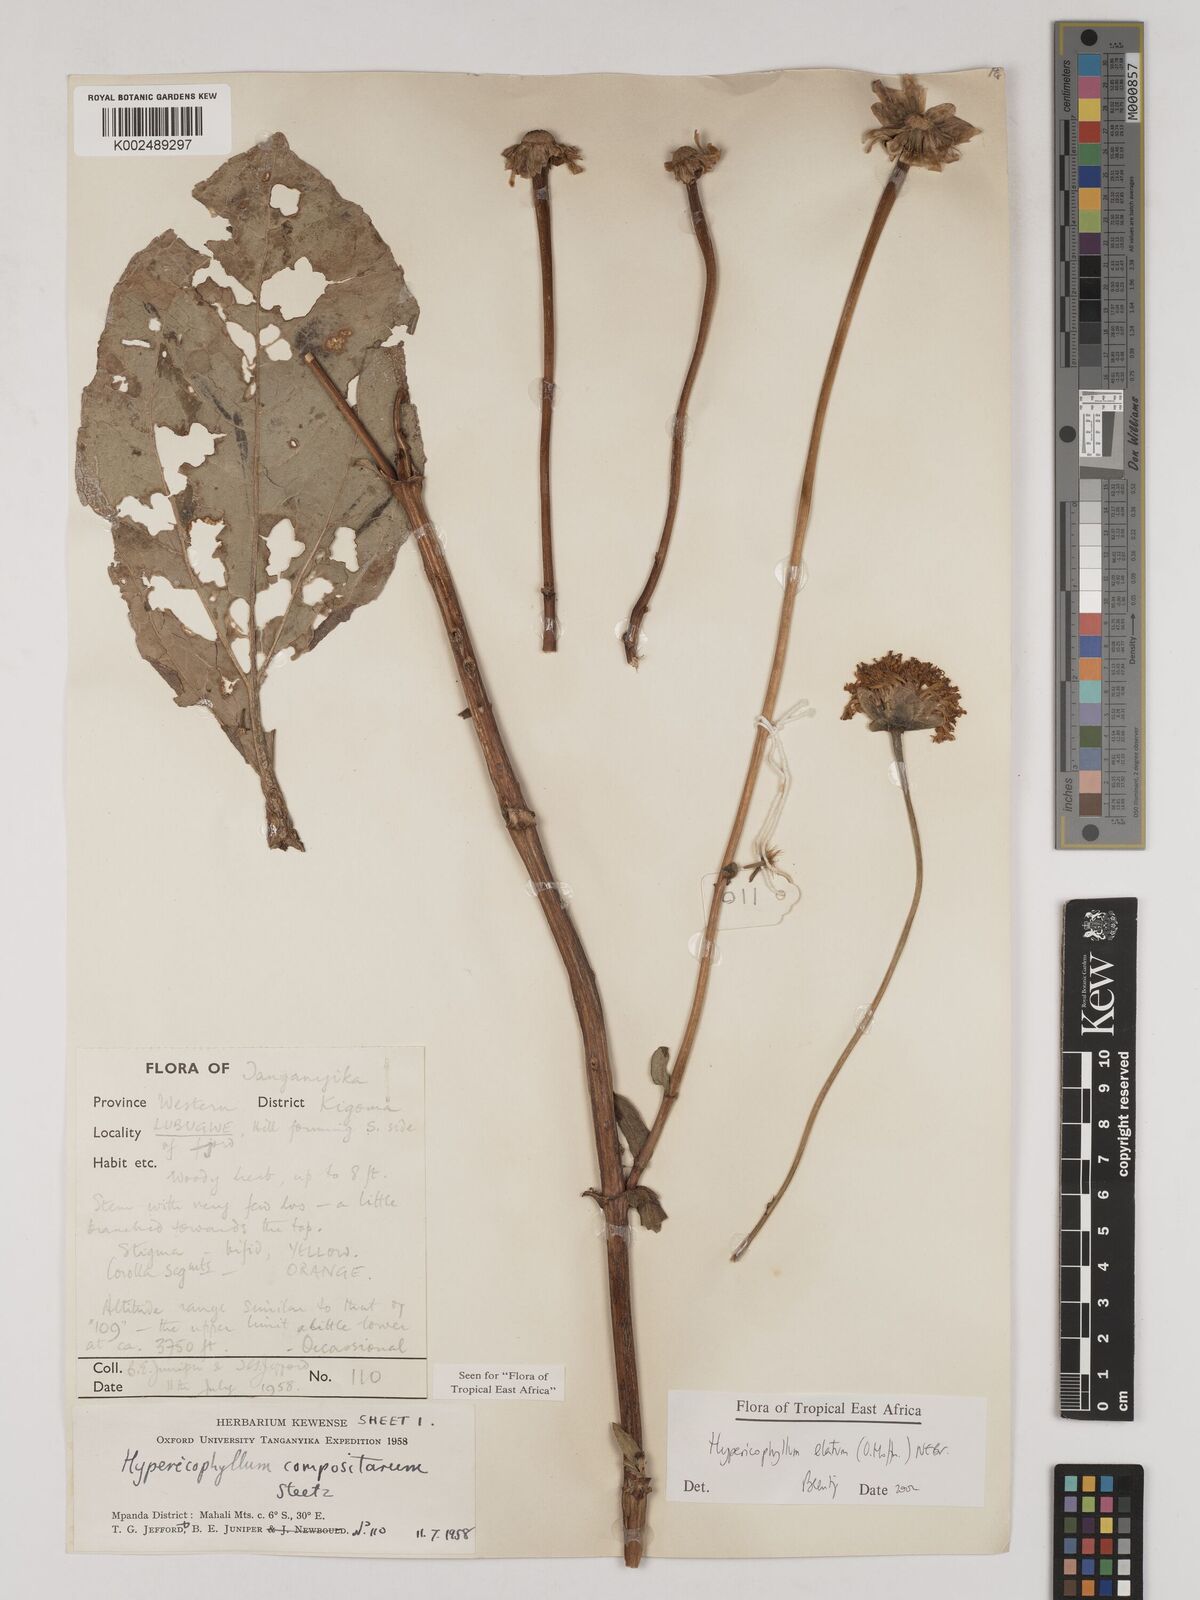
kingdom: Plantae
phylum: Tracheophyta
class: Magnoliopsida
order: Asterales
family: Asteraceae
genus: Hypericophyllum
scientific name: Hypericophyllum elatum
